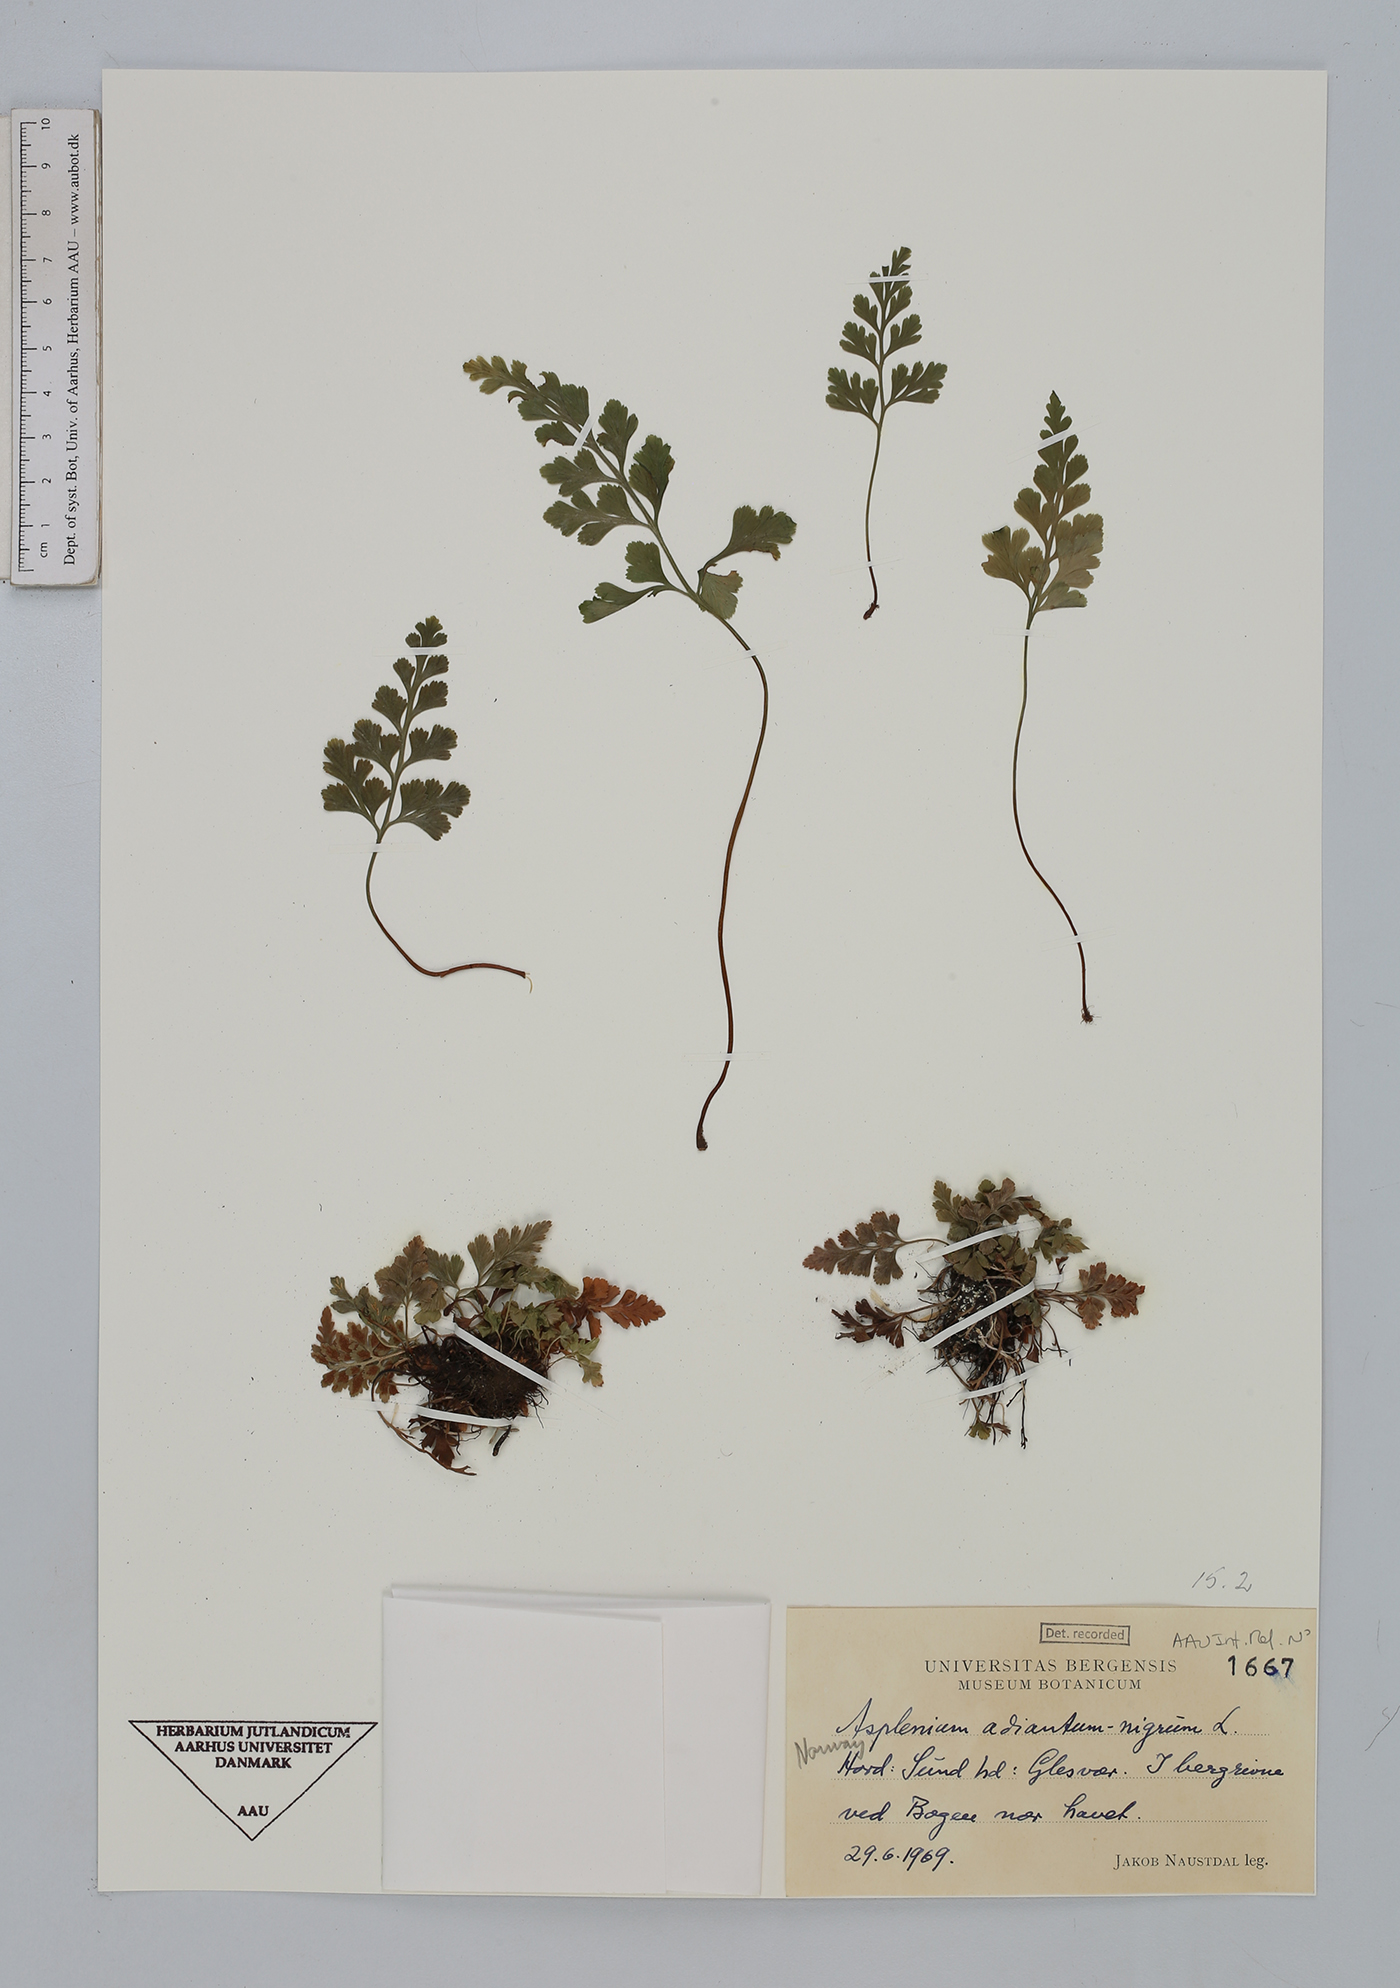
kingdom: Plantae
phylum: Tracheophyta
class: Polypodiopsida
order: Polypodiales
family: Aspleniaceae
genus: Asplenium
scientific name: Asplenium adiantum-nigrum
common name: Black spleenwort
